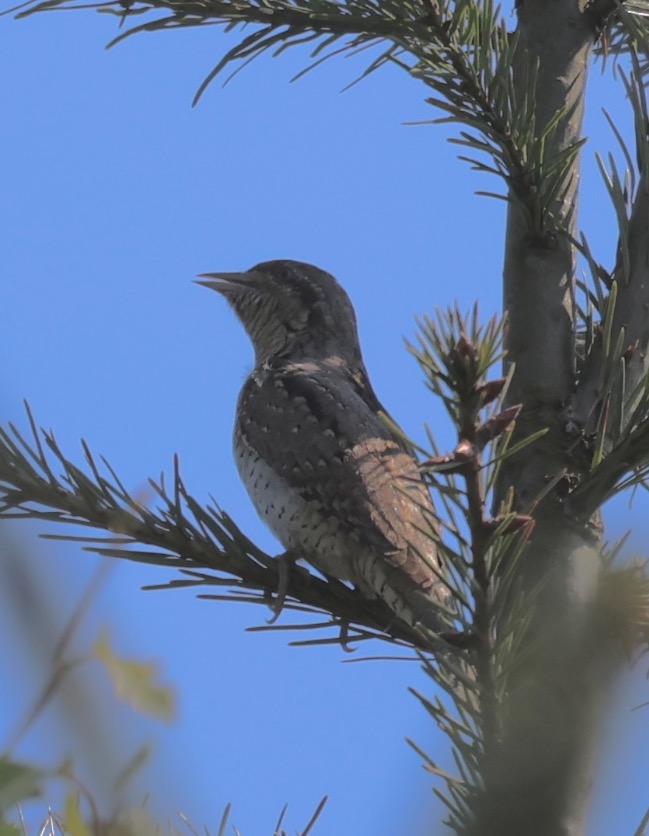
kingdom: Animalia
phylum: Chordata
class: Aves
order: Piciformes
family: Picidae
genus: Jynx
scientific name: Jynx torquilla
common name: Vendehals
